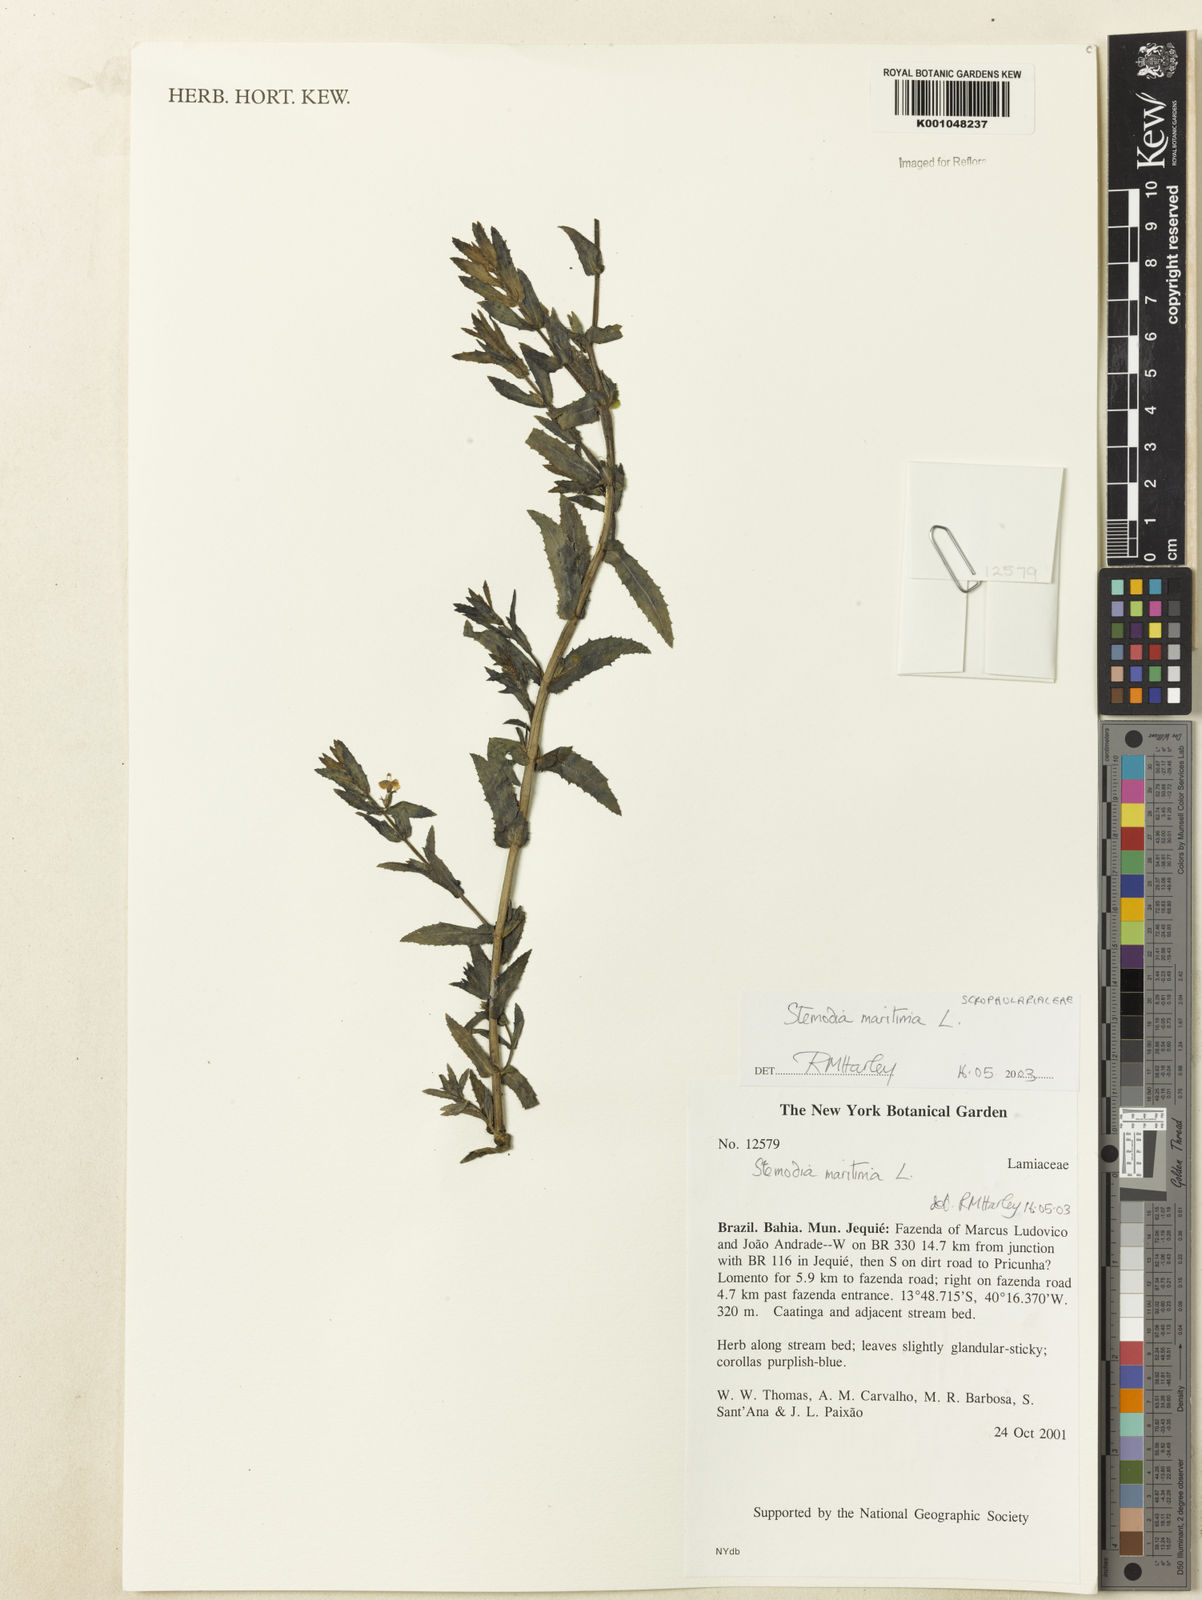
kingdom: Plantae
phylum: Tracheophyta
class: Magnoliopsida
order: Lamiales
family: Plantaginaceae
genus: Stemodia
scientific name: Stemodia maritima
